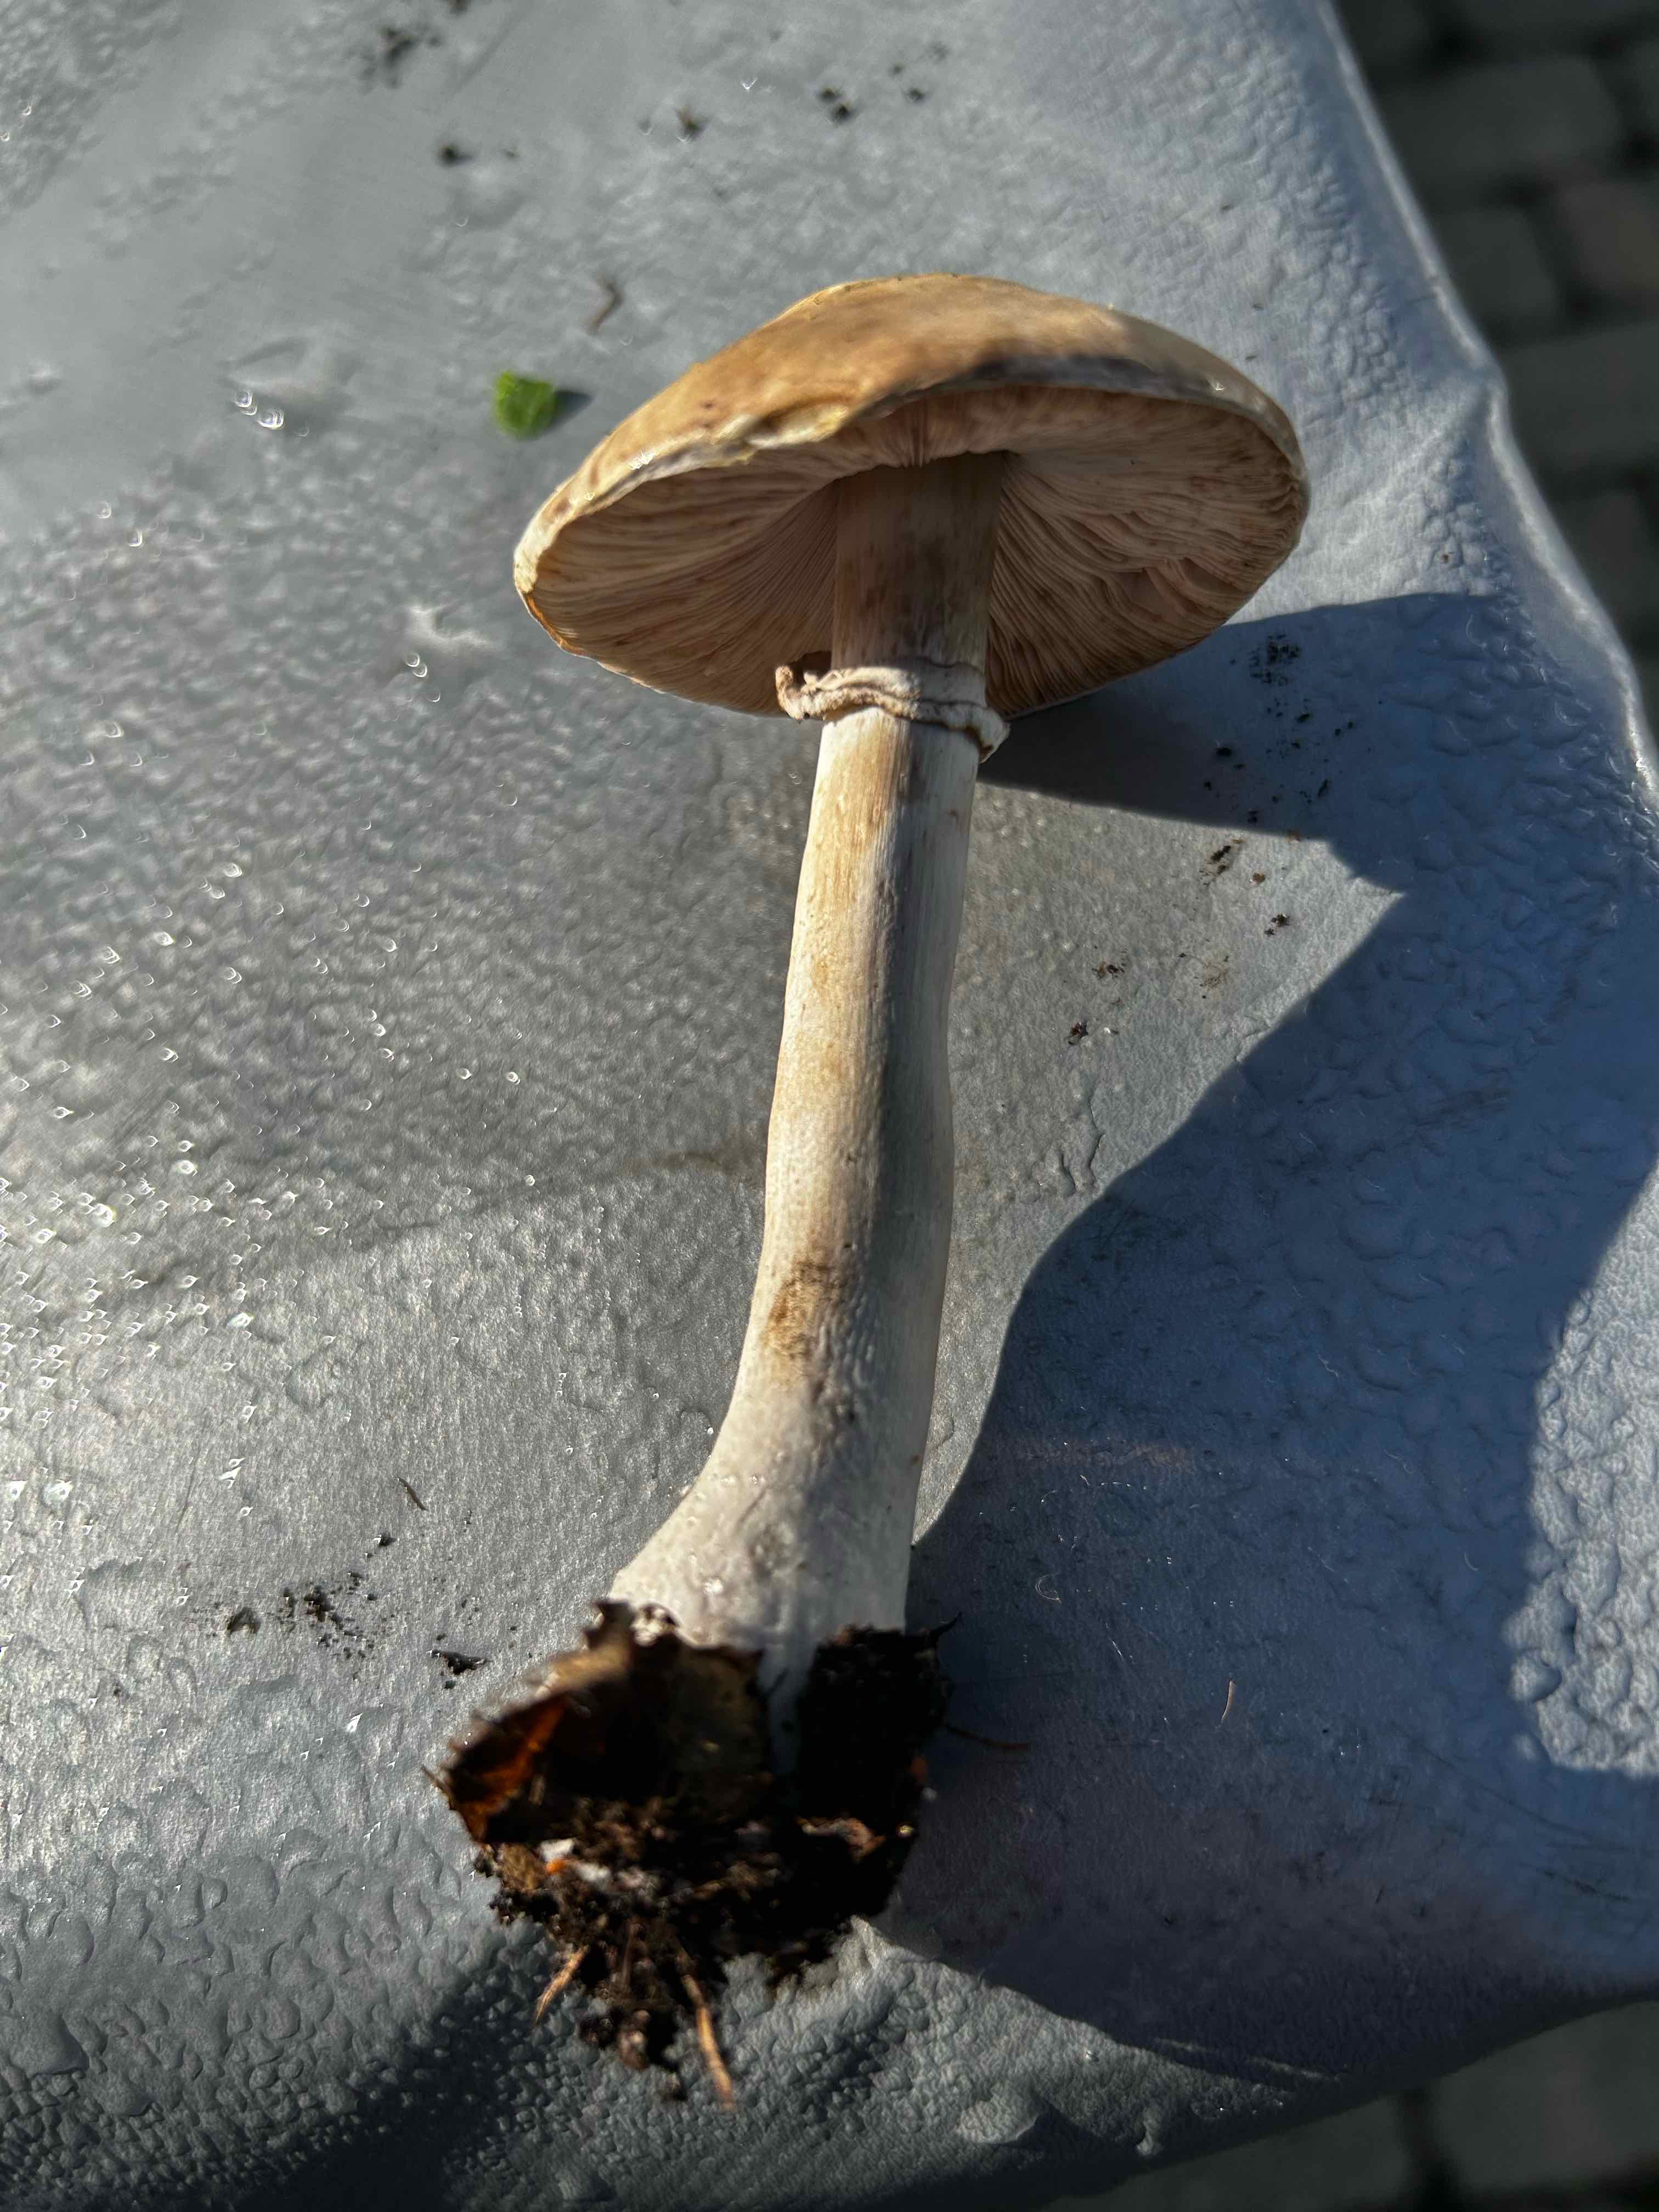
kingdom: Fungi
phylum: Basidiomycota
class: Agaricomycetes
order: Agaricales
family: Agaricaceae
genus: Leucoagaricus
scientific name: Leucoagaricus
